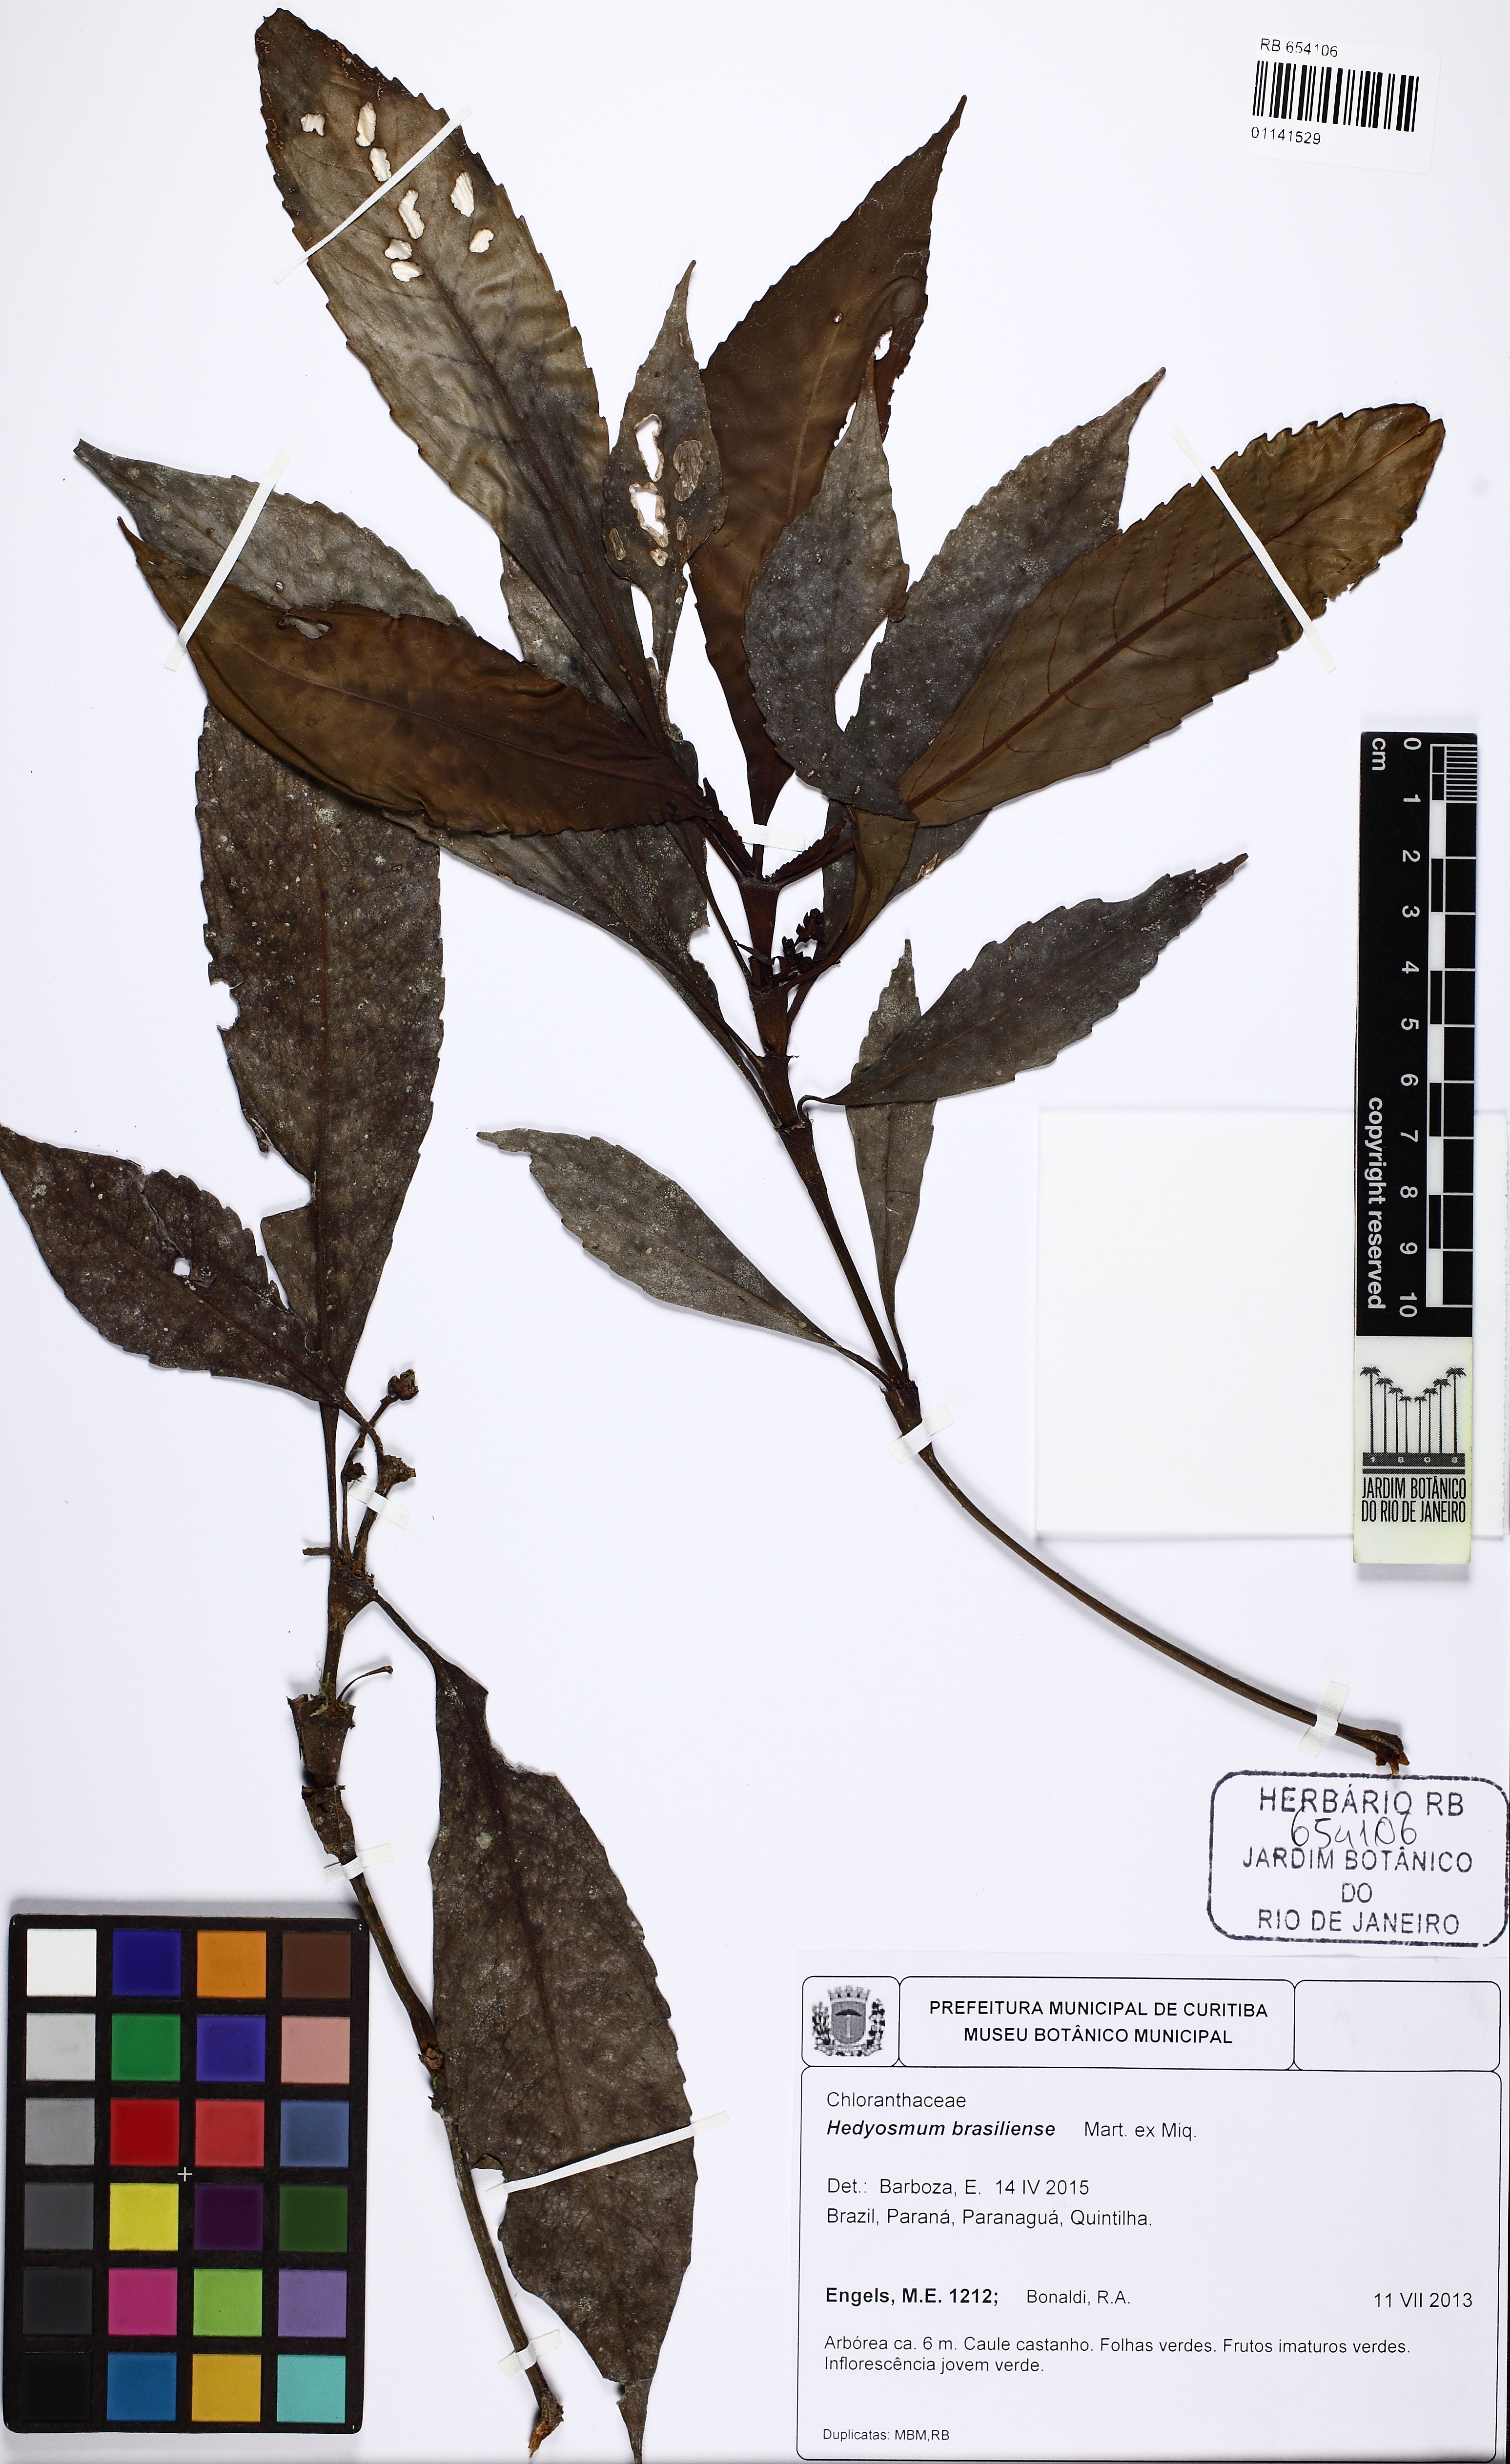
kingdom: Plantae
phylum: Tracheophyta
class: Magnoliopsida
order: Chloranthales
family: Chloranthaceae
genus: Hedyosmum
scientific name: Hedyosmum brasiliense
